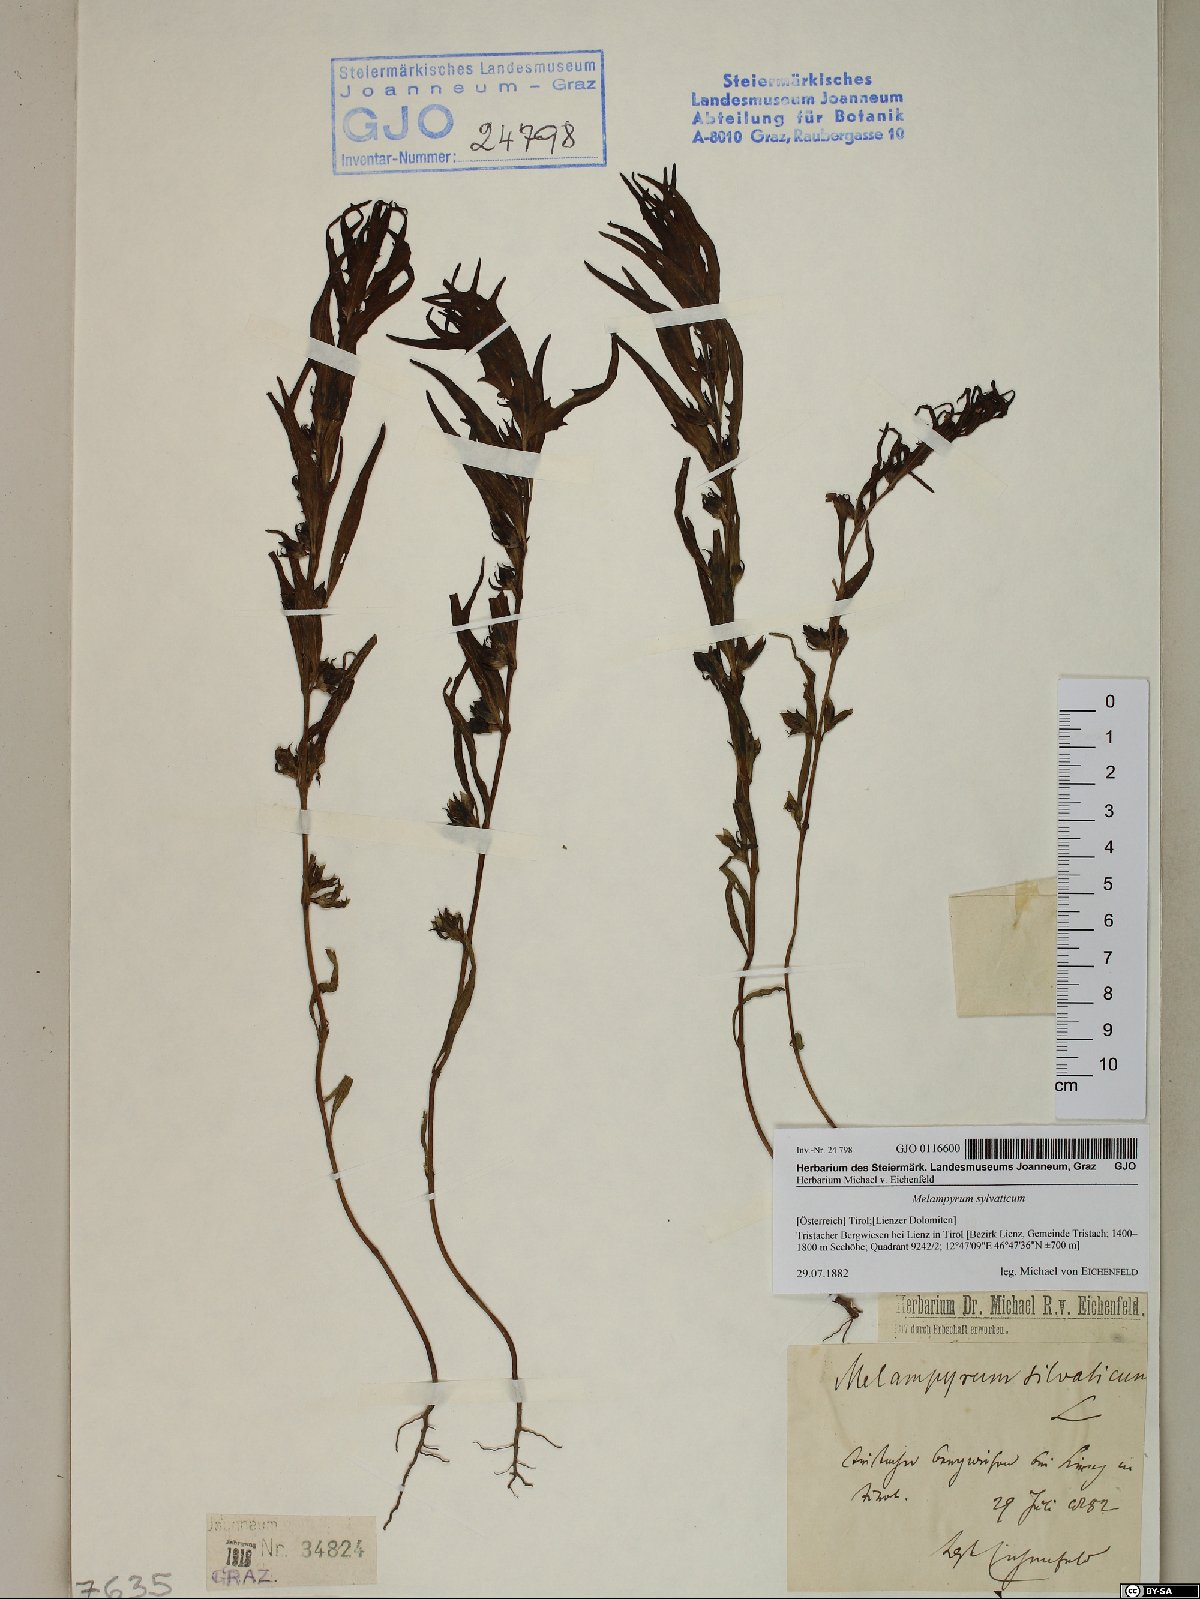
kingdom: Plantae
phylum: Tracheophyta
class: Magnoliopsida
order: Lamiales
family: Orobanchaceae
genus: Melampyrum
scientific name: Melampyrum sylvaticum
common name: Small cow-wheat
